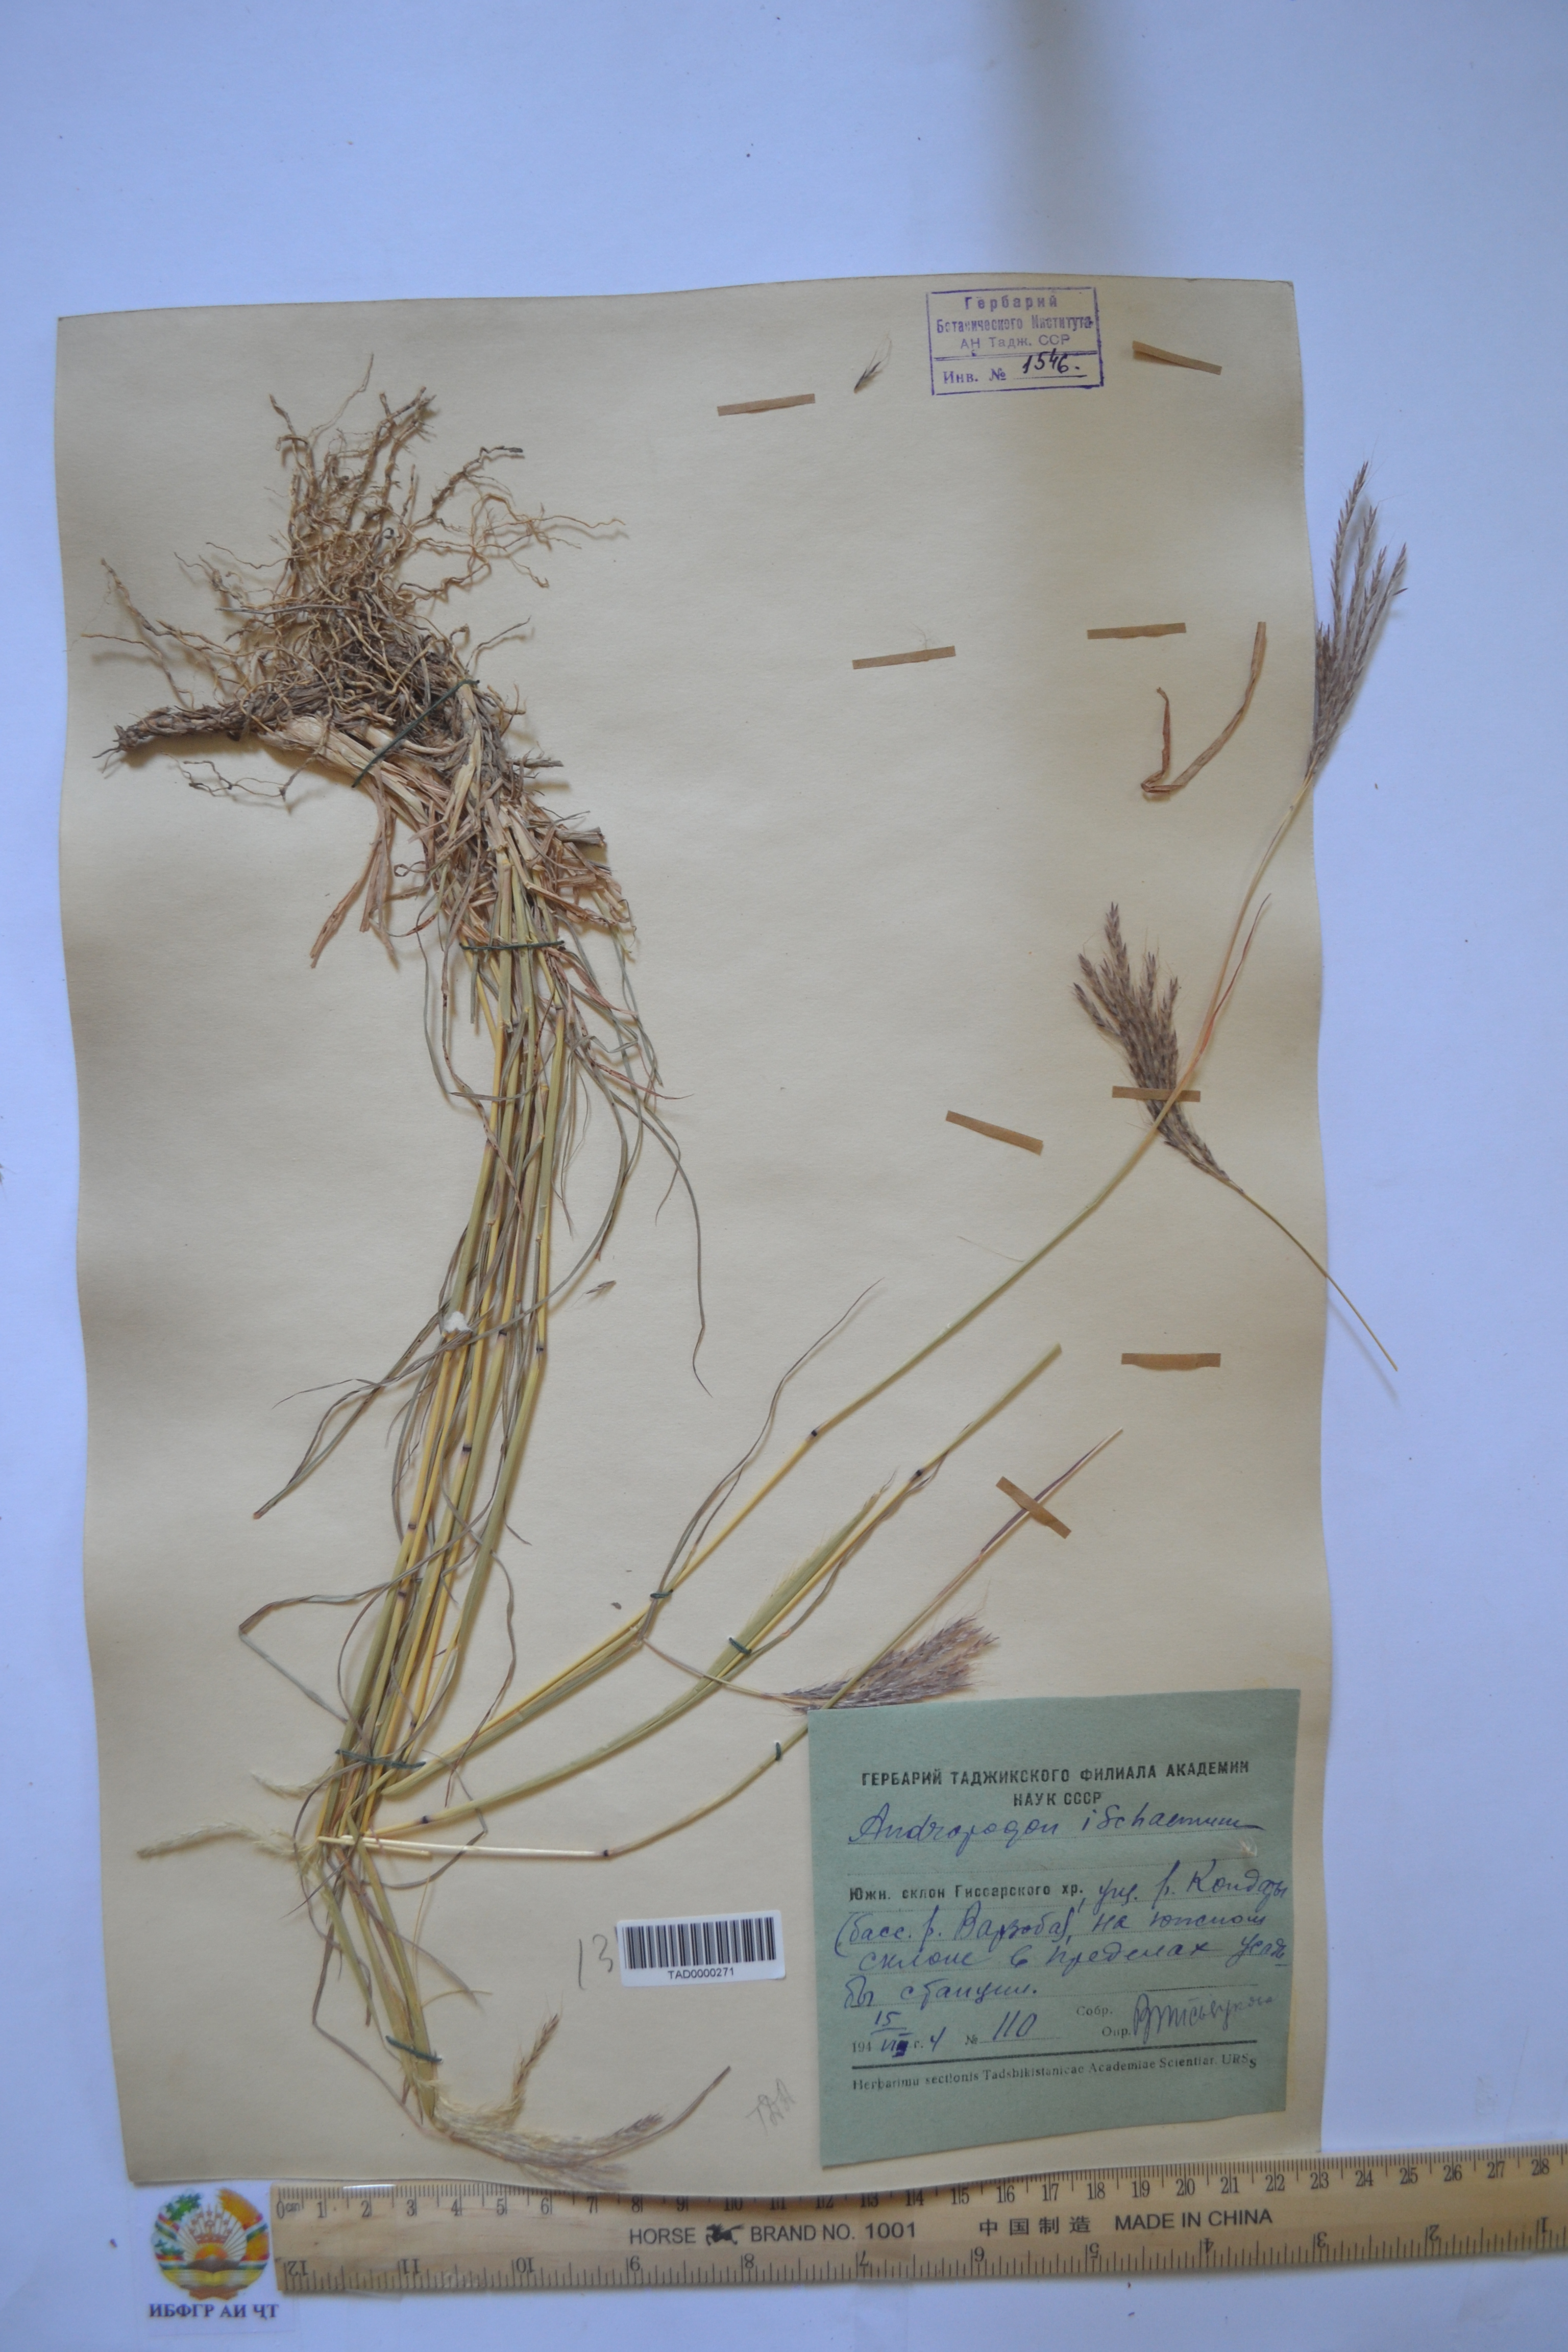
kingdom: Plantae
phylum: Tracheophyta
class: Liliopsida
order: Poales
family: Poaceae
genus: Bothriochloa
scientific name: Bothriochloa ischaemum
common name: Yellow bluestem
